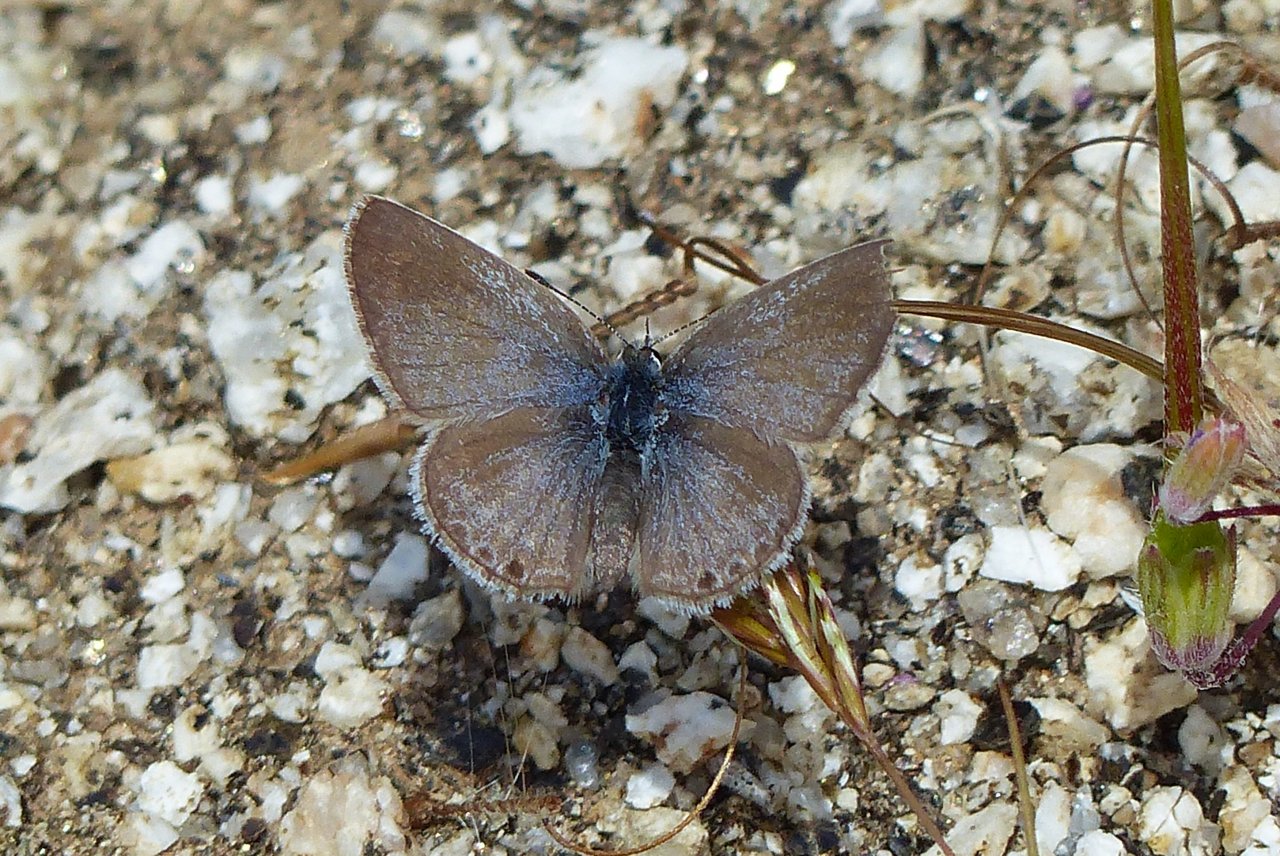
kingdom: Animalia
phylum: Arthropoda
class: Insecta
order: Lepidoptera
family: Lycaenidae
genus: Glaucopsyche
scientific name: Glaucopsyche lygdamus
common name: Silvery Blue
